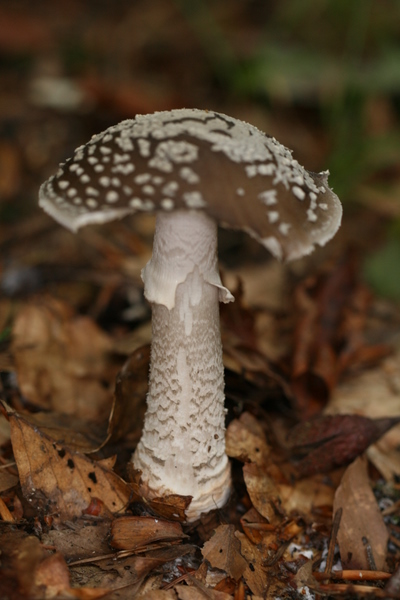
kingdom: Fungi
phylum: Basidiomycota
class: Agaricomycetes
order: Agaricales
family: Amanitaceae
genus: Amanita
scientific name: Amanita
